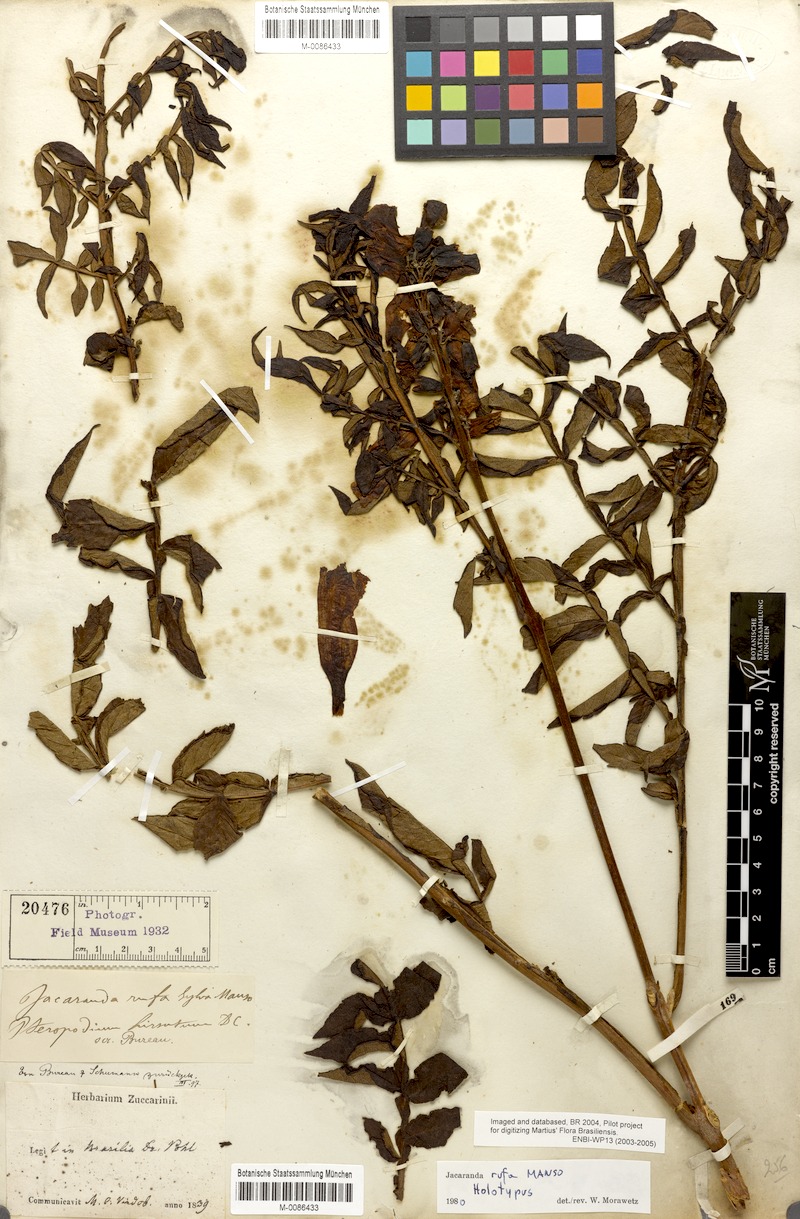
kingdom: Plantae
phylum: Tracheophyta
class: Magnoliopsida
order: Lamiales
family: Bignoniaceae
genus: Jacaranda
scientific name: Jacaranda rufa
